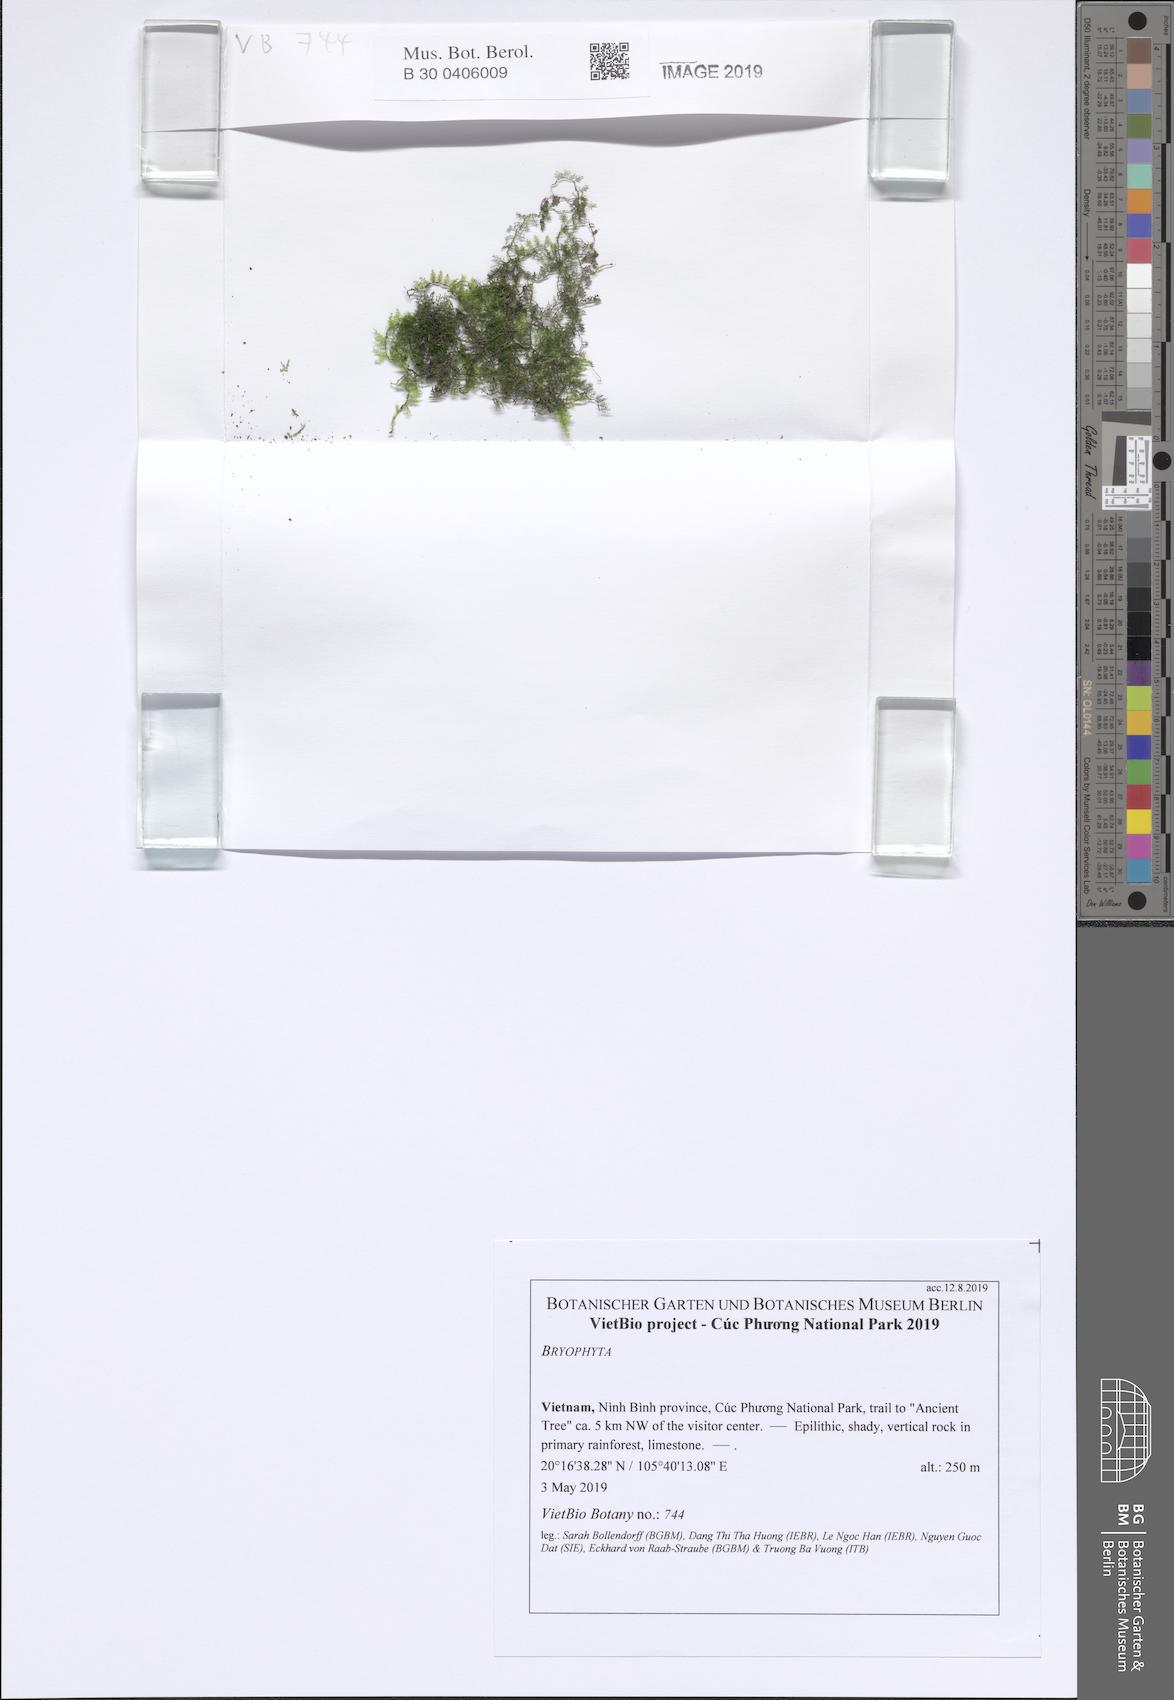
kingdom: Plantae
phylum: Bryophyta
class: Bryopsida
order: Hypnales
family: Thuidiaceae
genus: Pelekium
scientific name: Pelekium velatum
